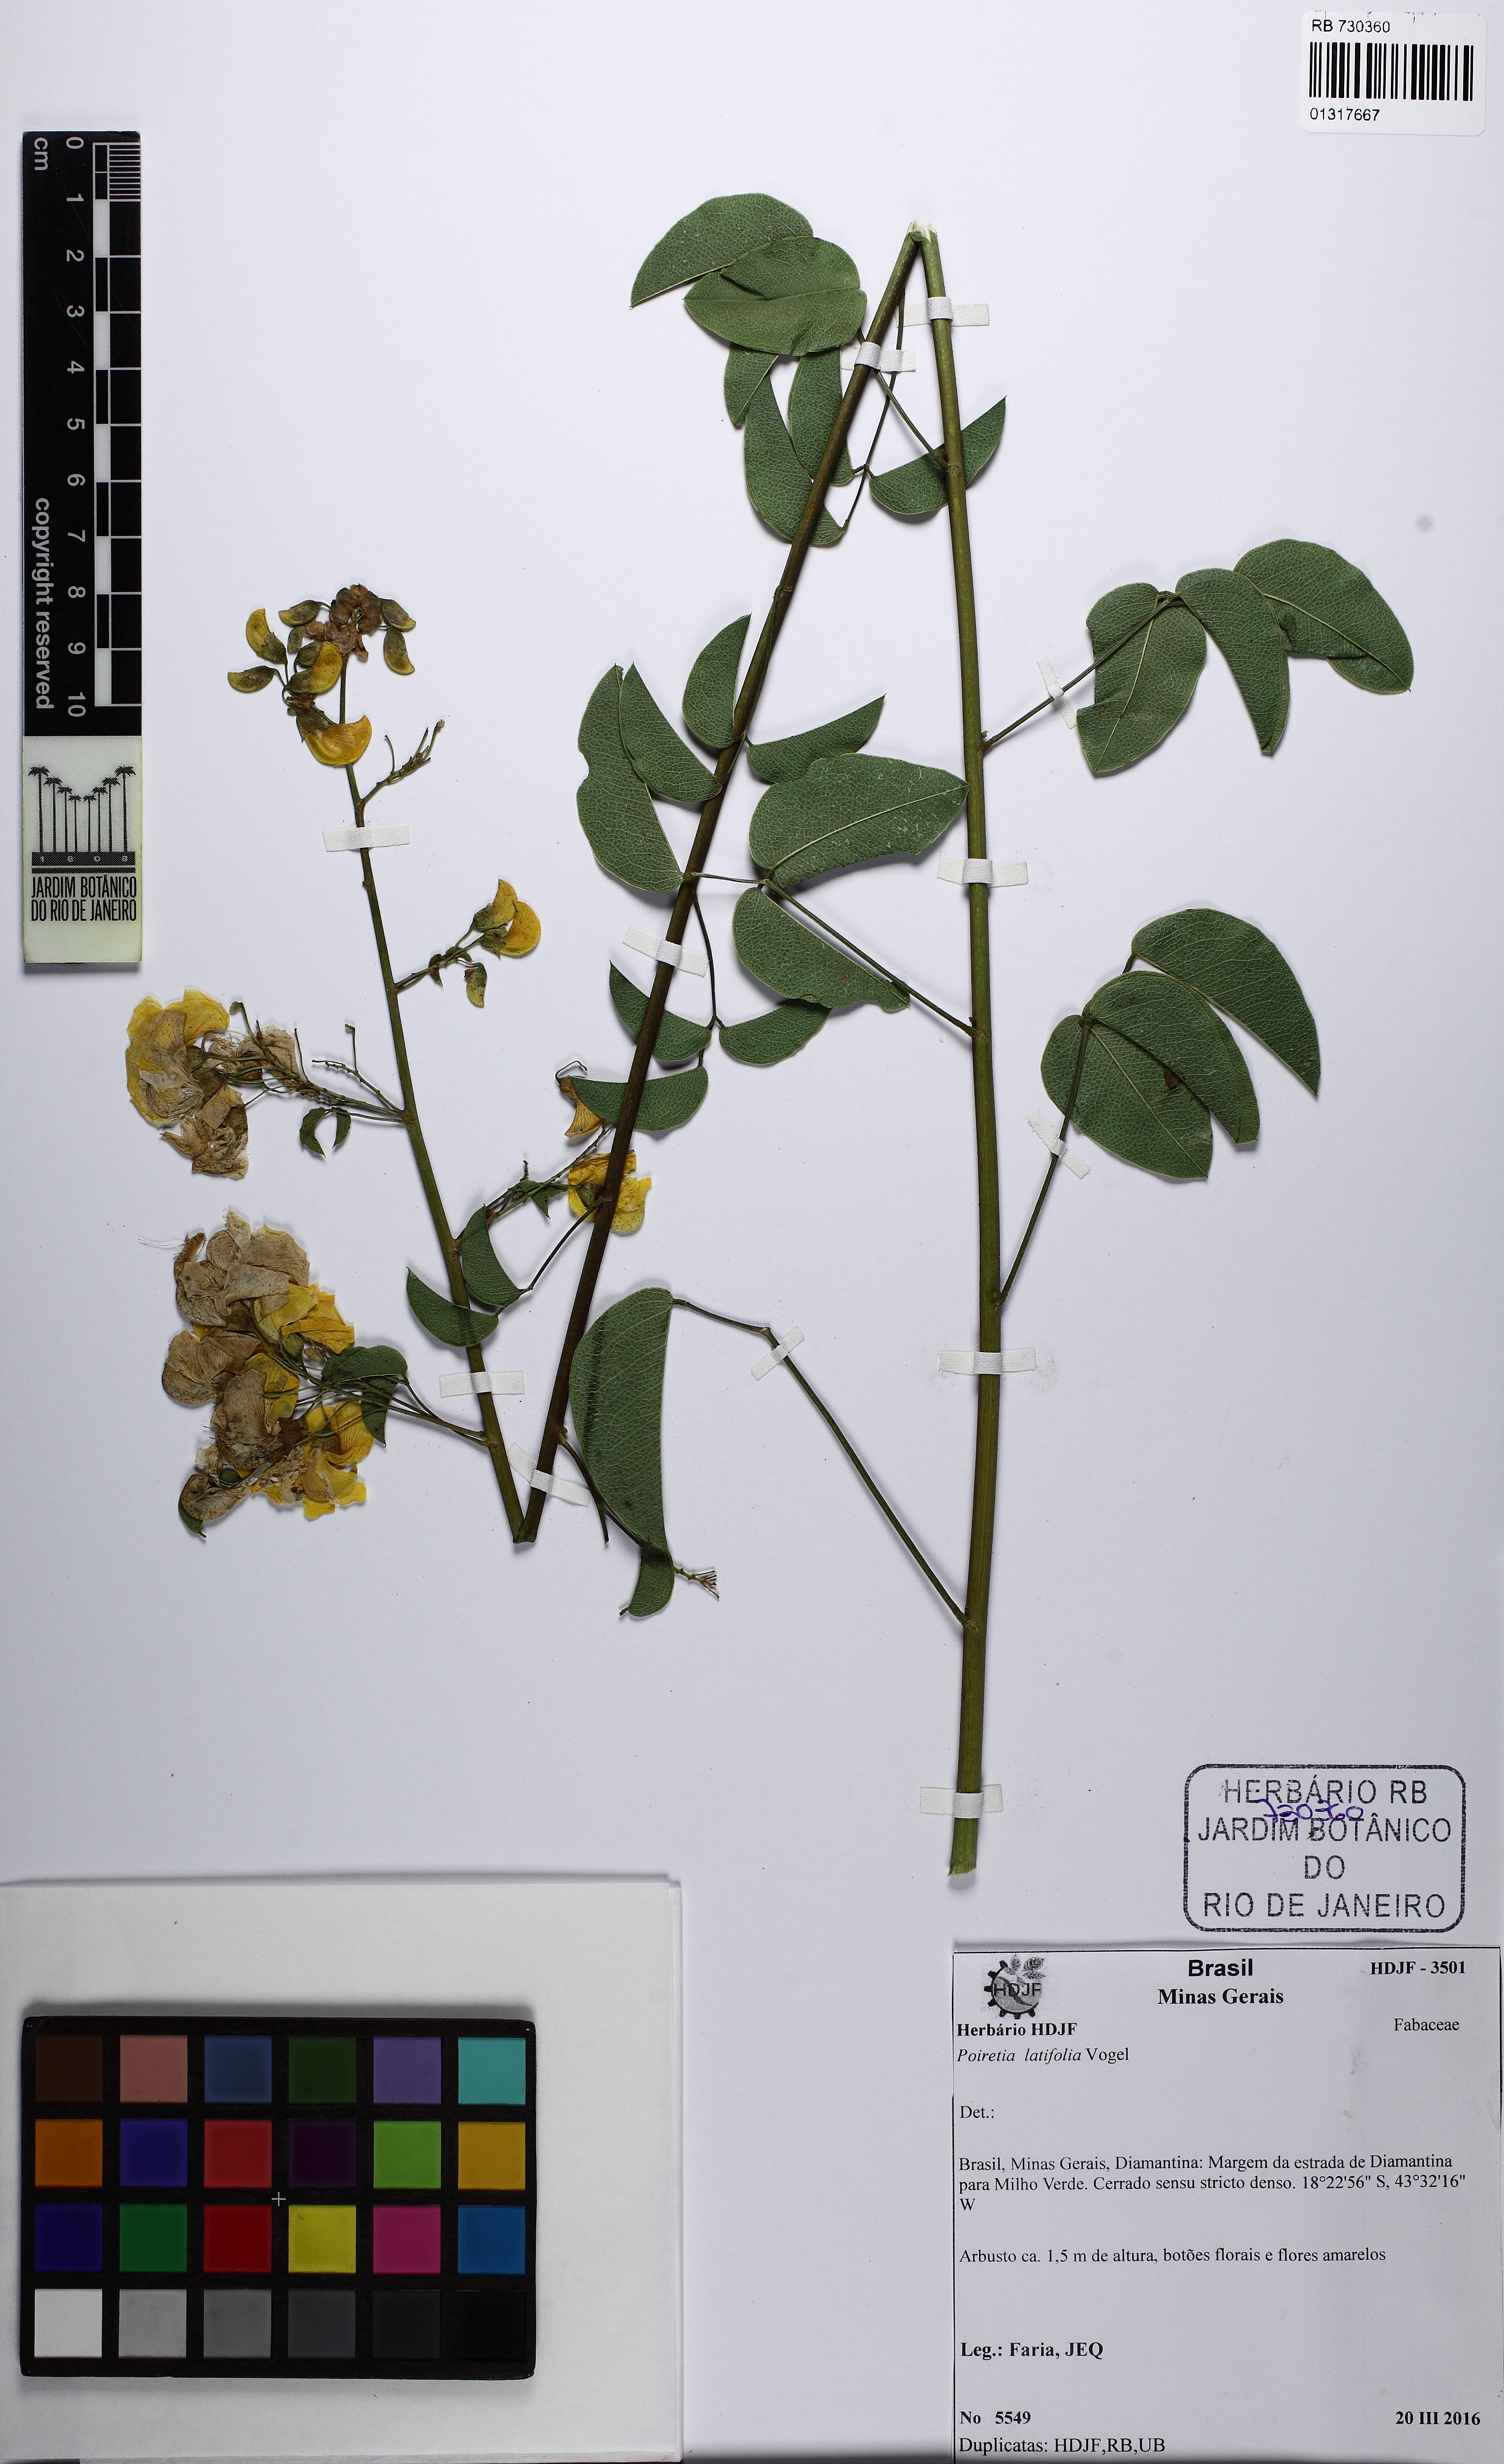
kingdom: Plantae
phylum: Tracheophyta
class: Magnoliopsida
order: Fabales
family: Fabaceae
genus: Poiretia
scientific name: Poiretia elegans
